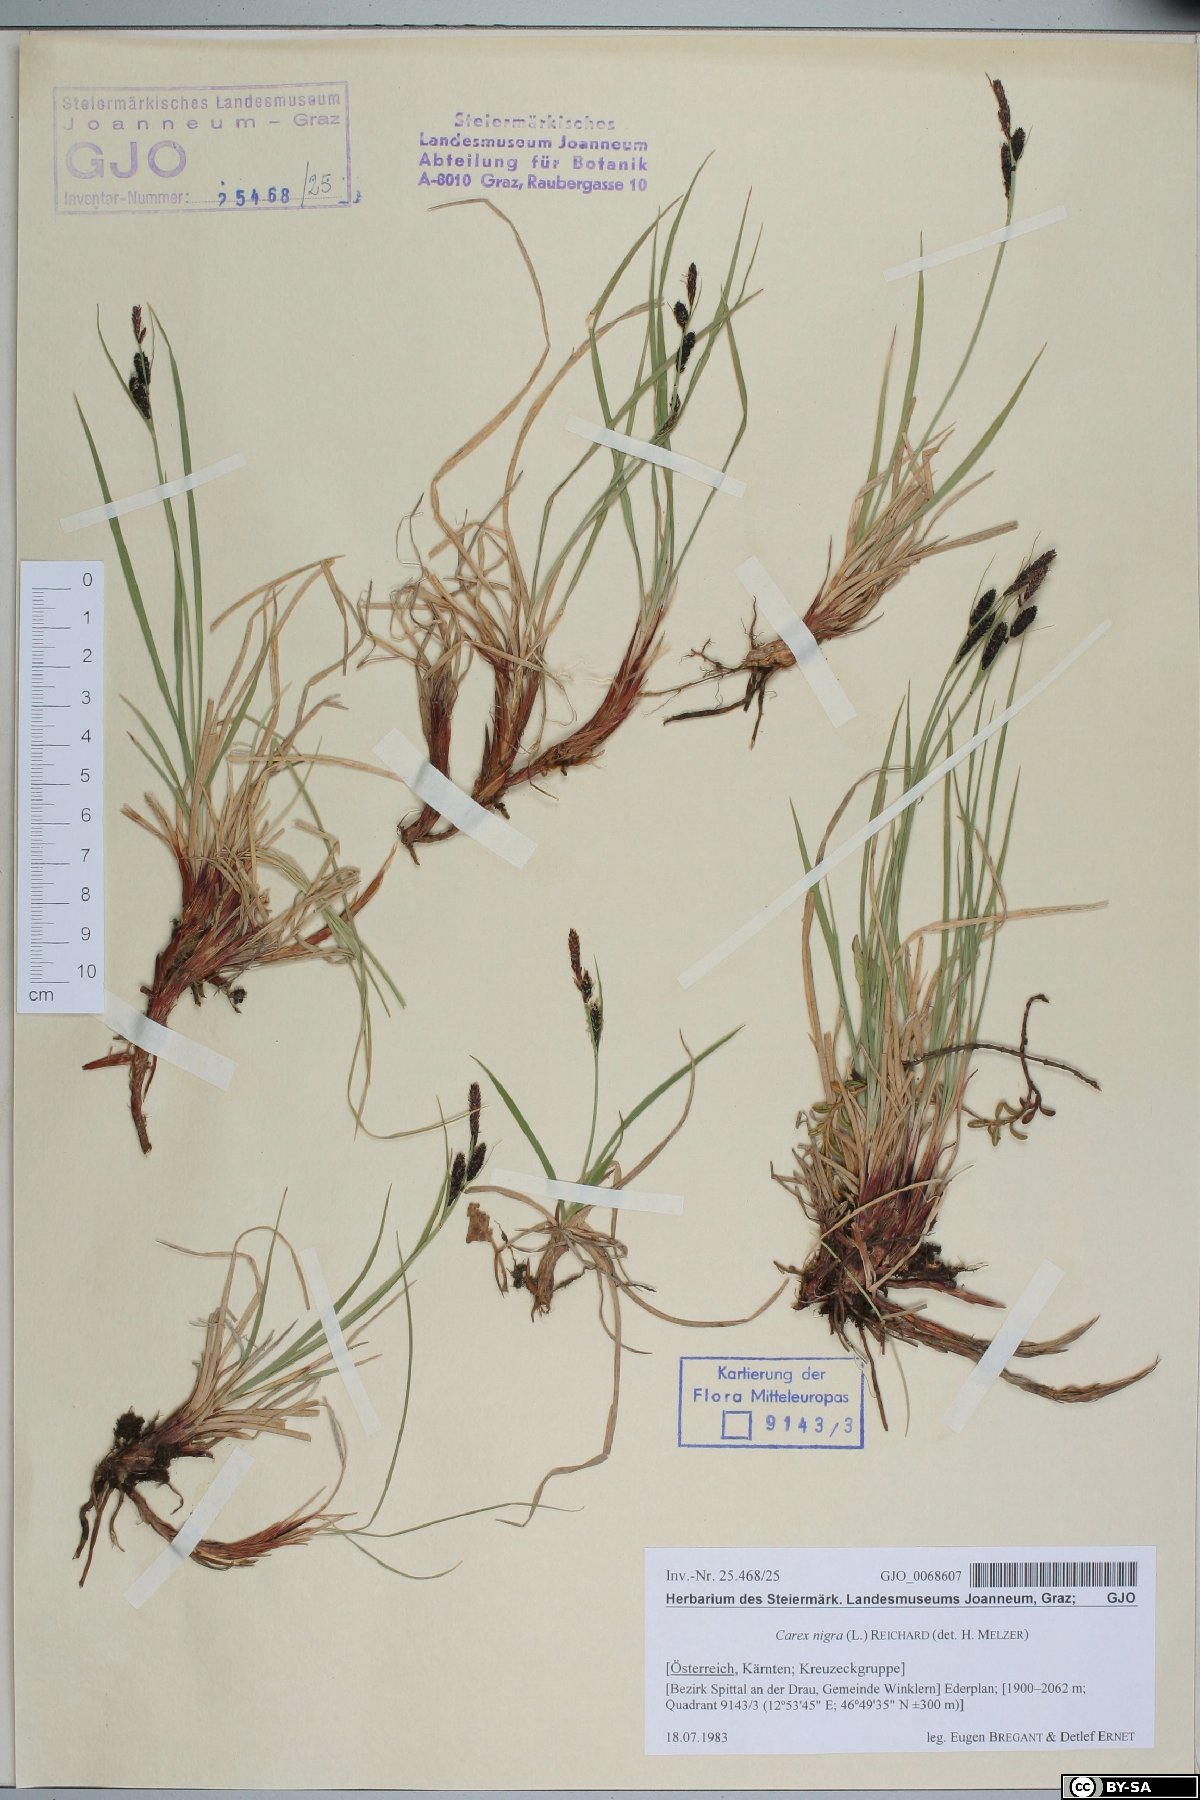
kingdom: Plantae
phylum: Tracheophyta
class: Liliopsida
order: Poales
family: Cyperaceae
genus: Carex
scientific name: Carex nigra
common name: Common sedge
